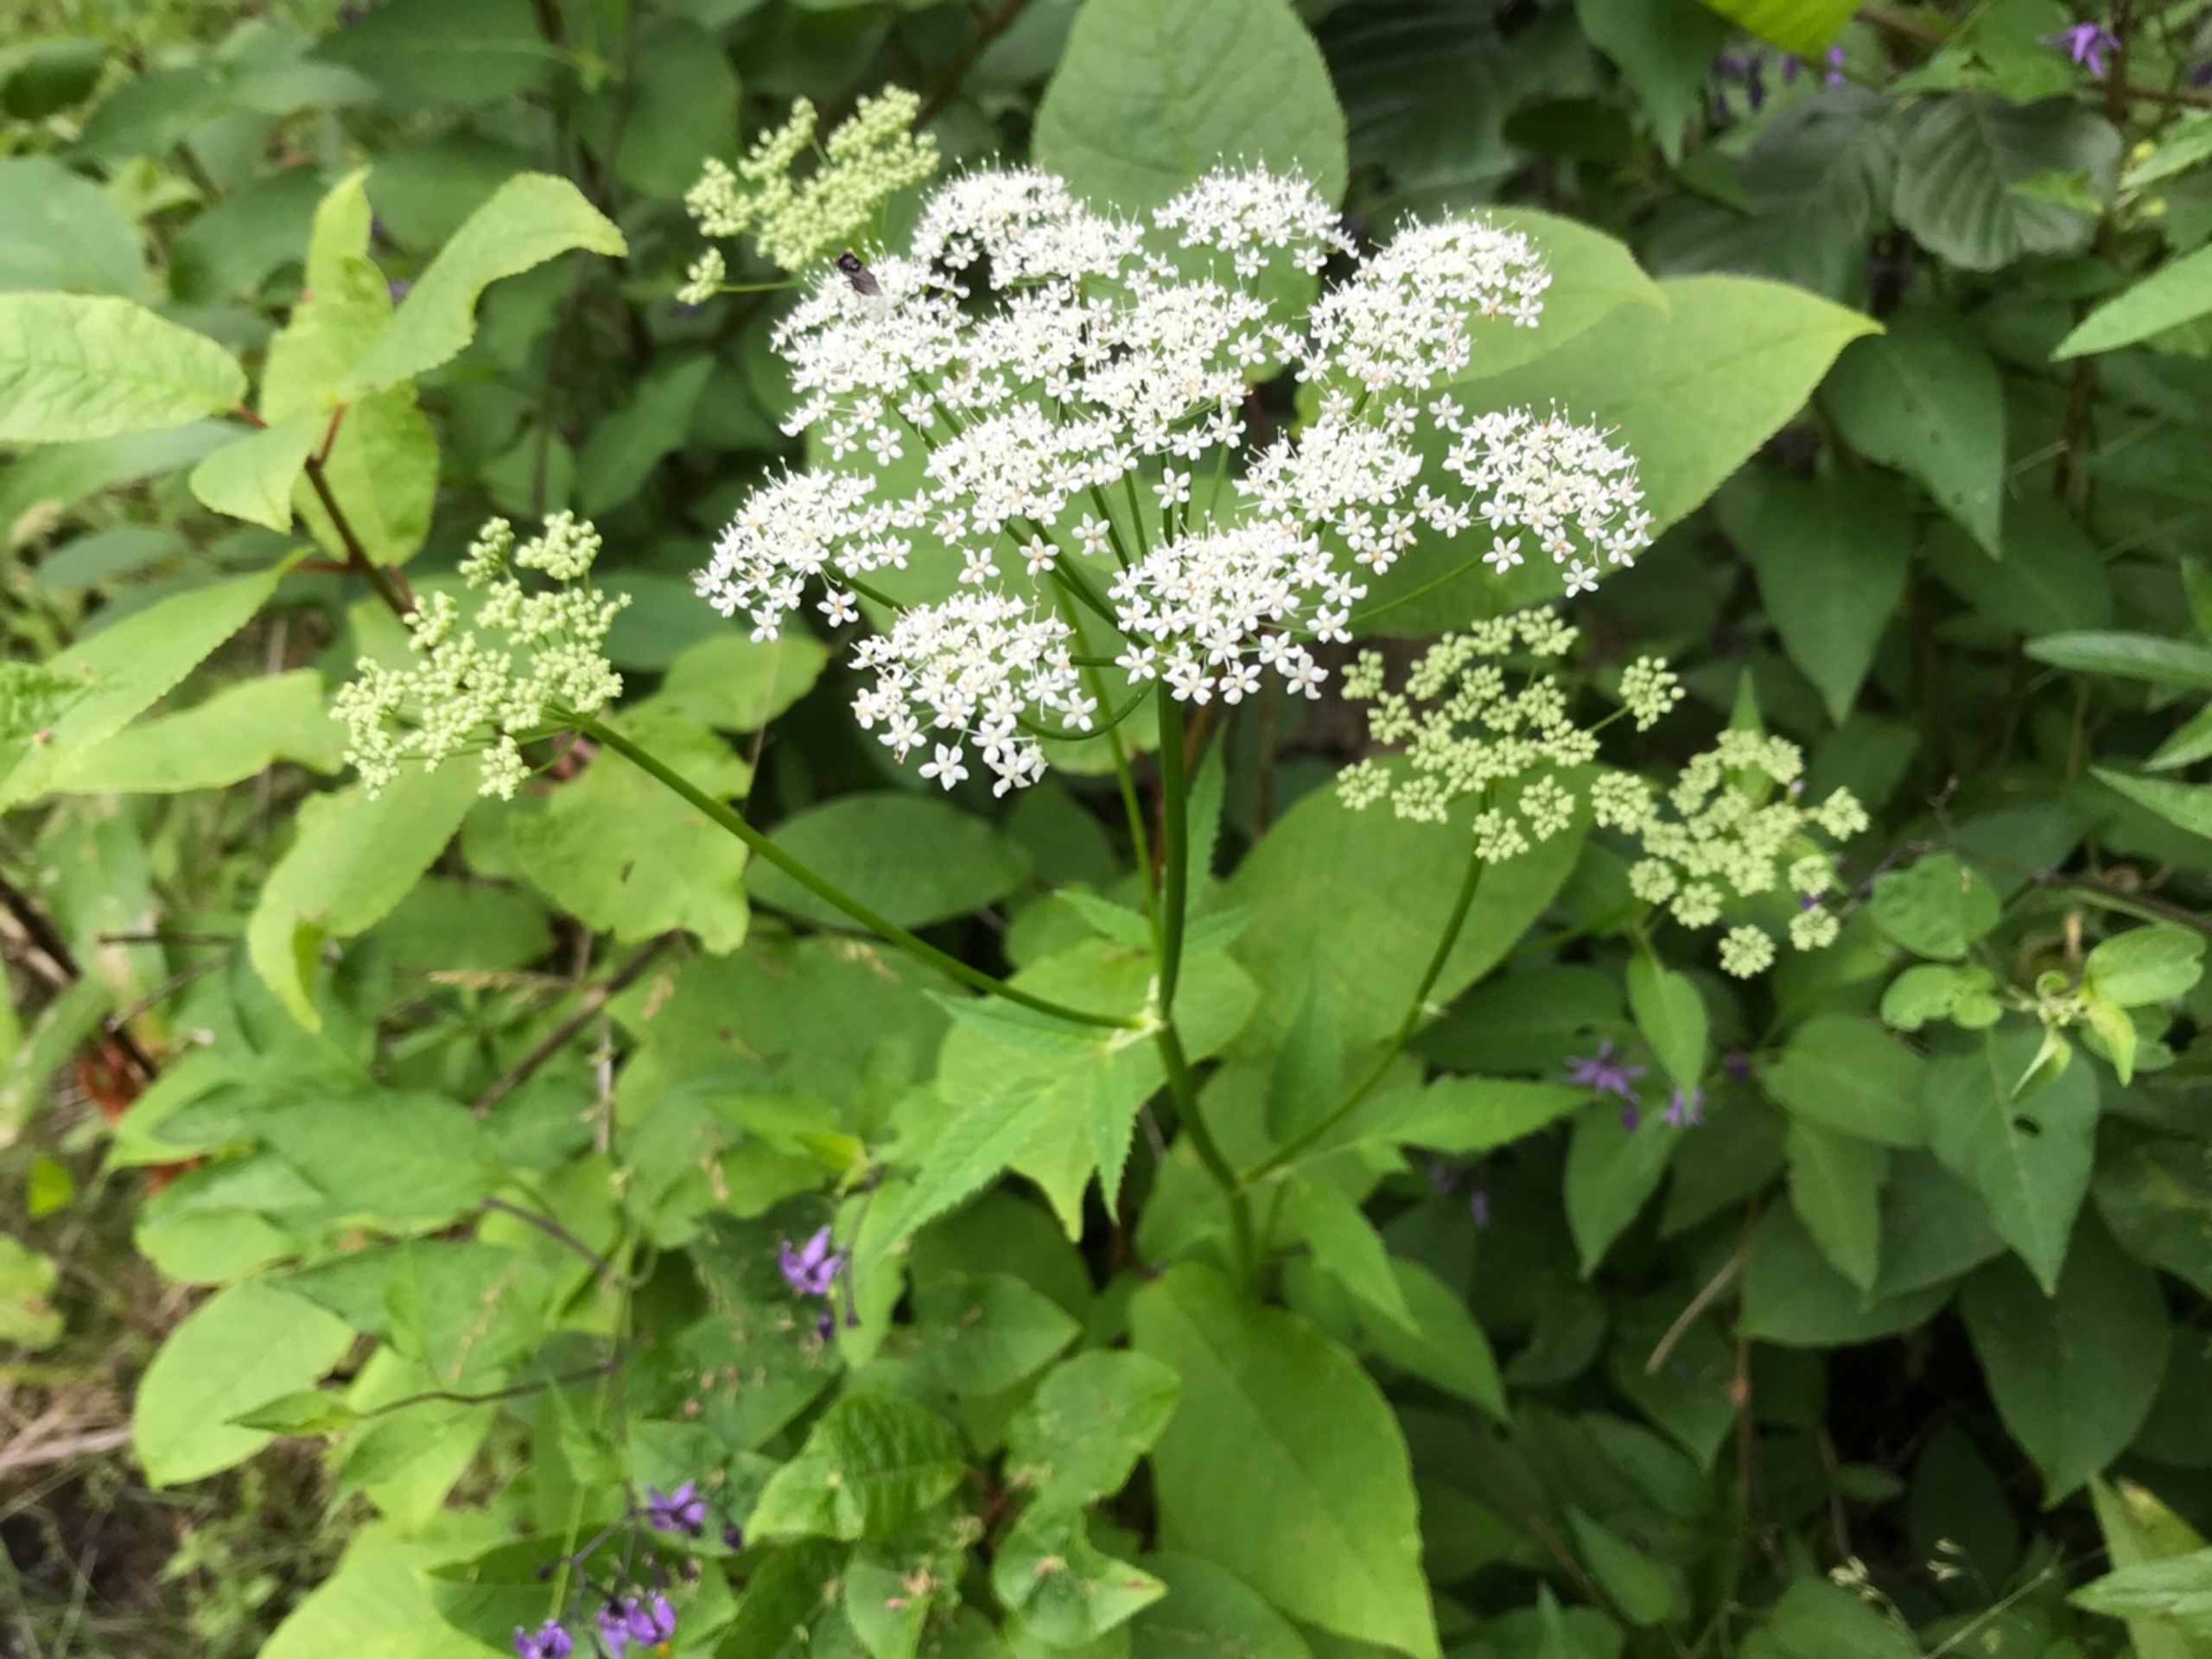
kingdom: Plantae
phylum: Tracheophyta
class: Magnoliopsida
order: Apiales
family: Apiaceae
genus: Aegopodium
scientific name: Aegopodium podagraria
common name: Skvalderkål
